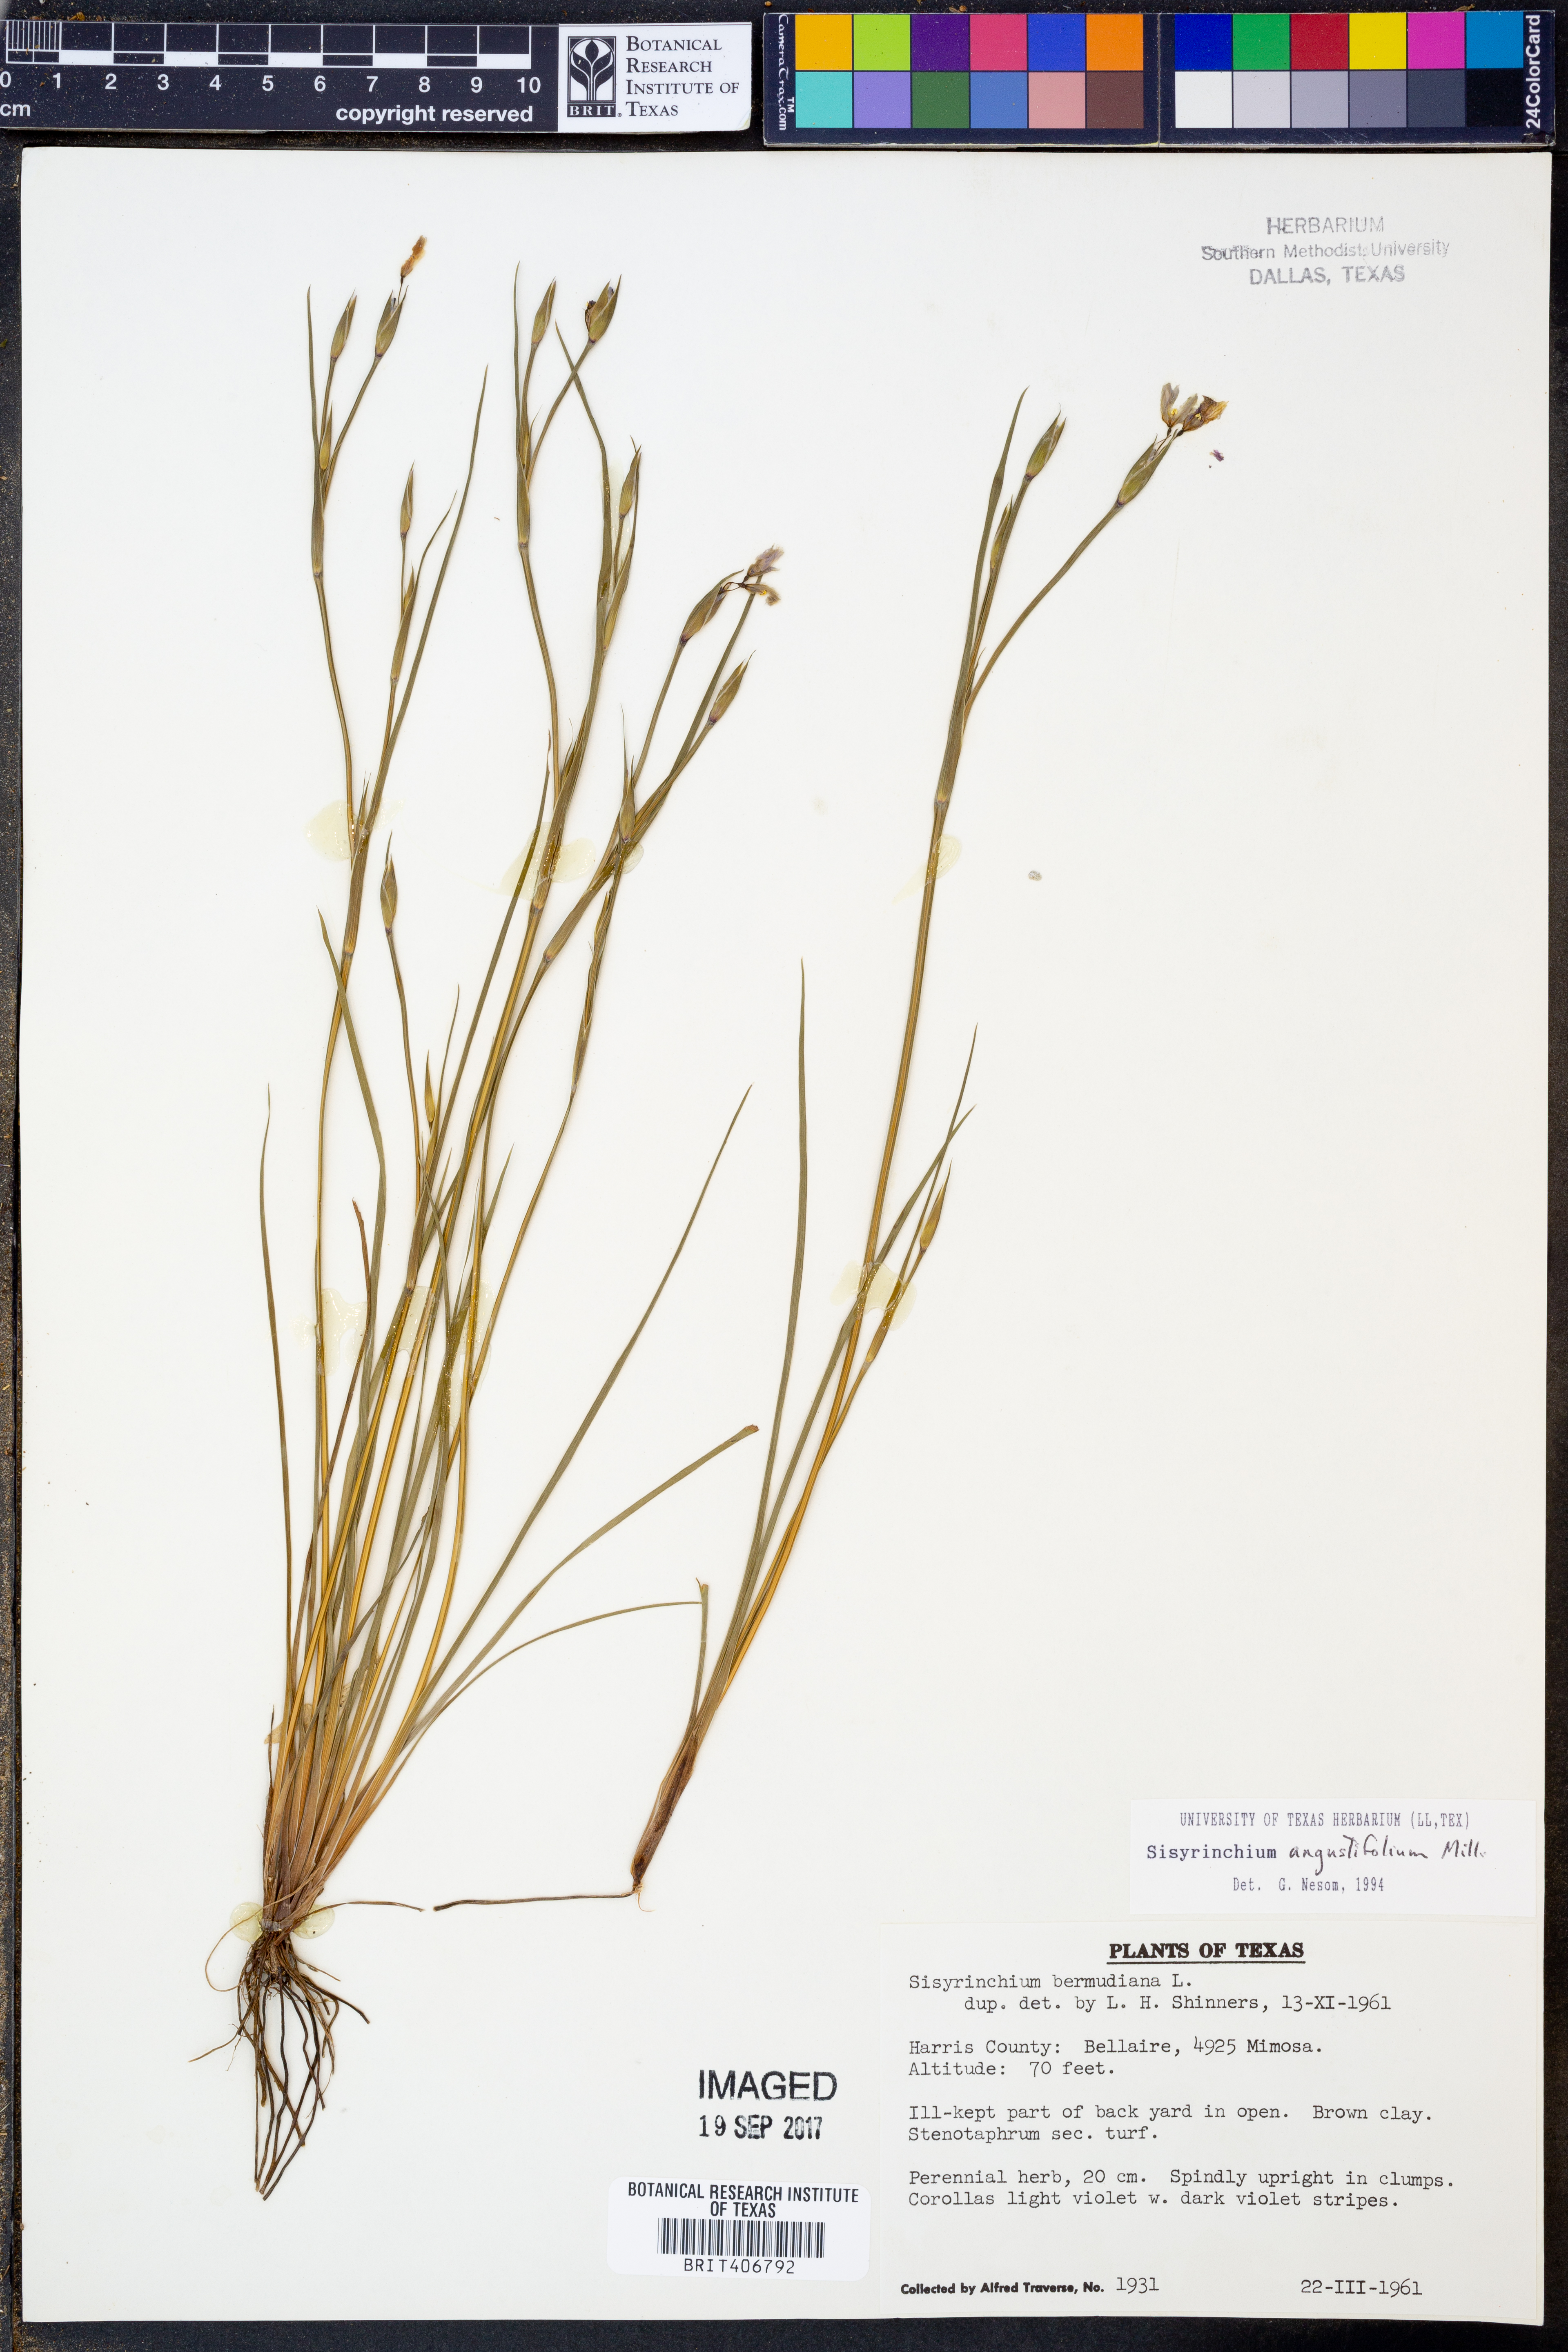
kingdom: Plantae
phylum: Tracheophyta
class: Liliopsida
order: Asparagales
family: Iridaceae
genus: Sisyrinchium
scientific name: Sisyrinchium angustifolium
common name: Narrow-leaf blue-eyed-grass
